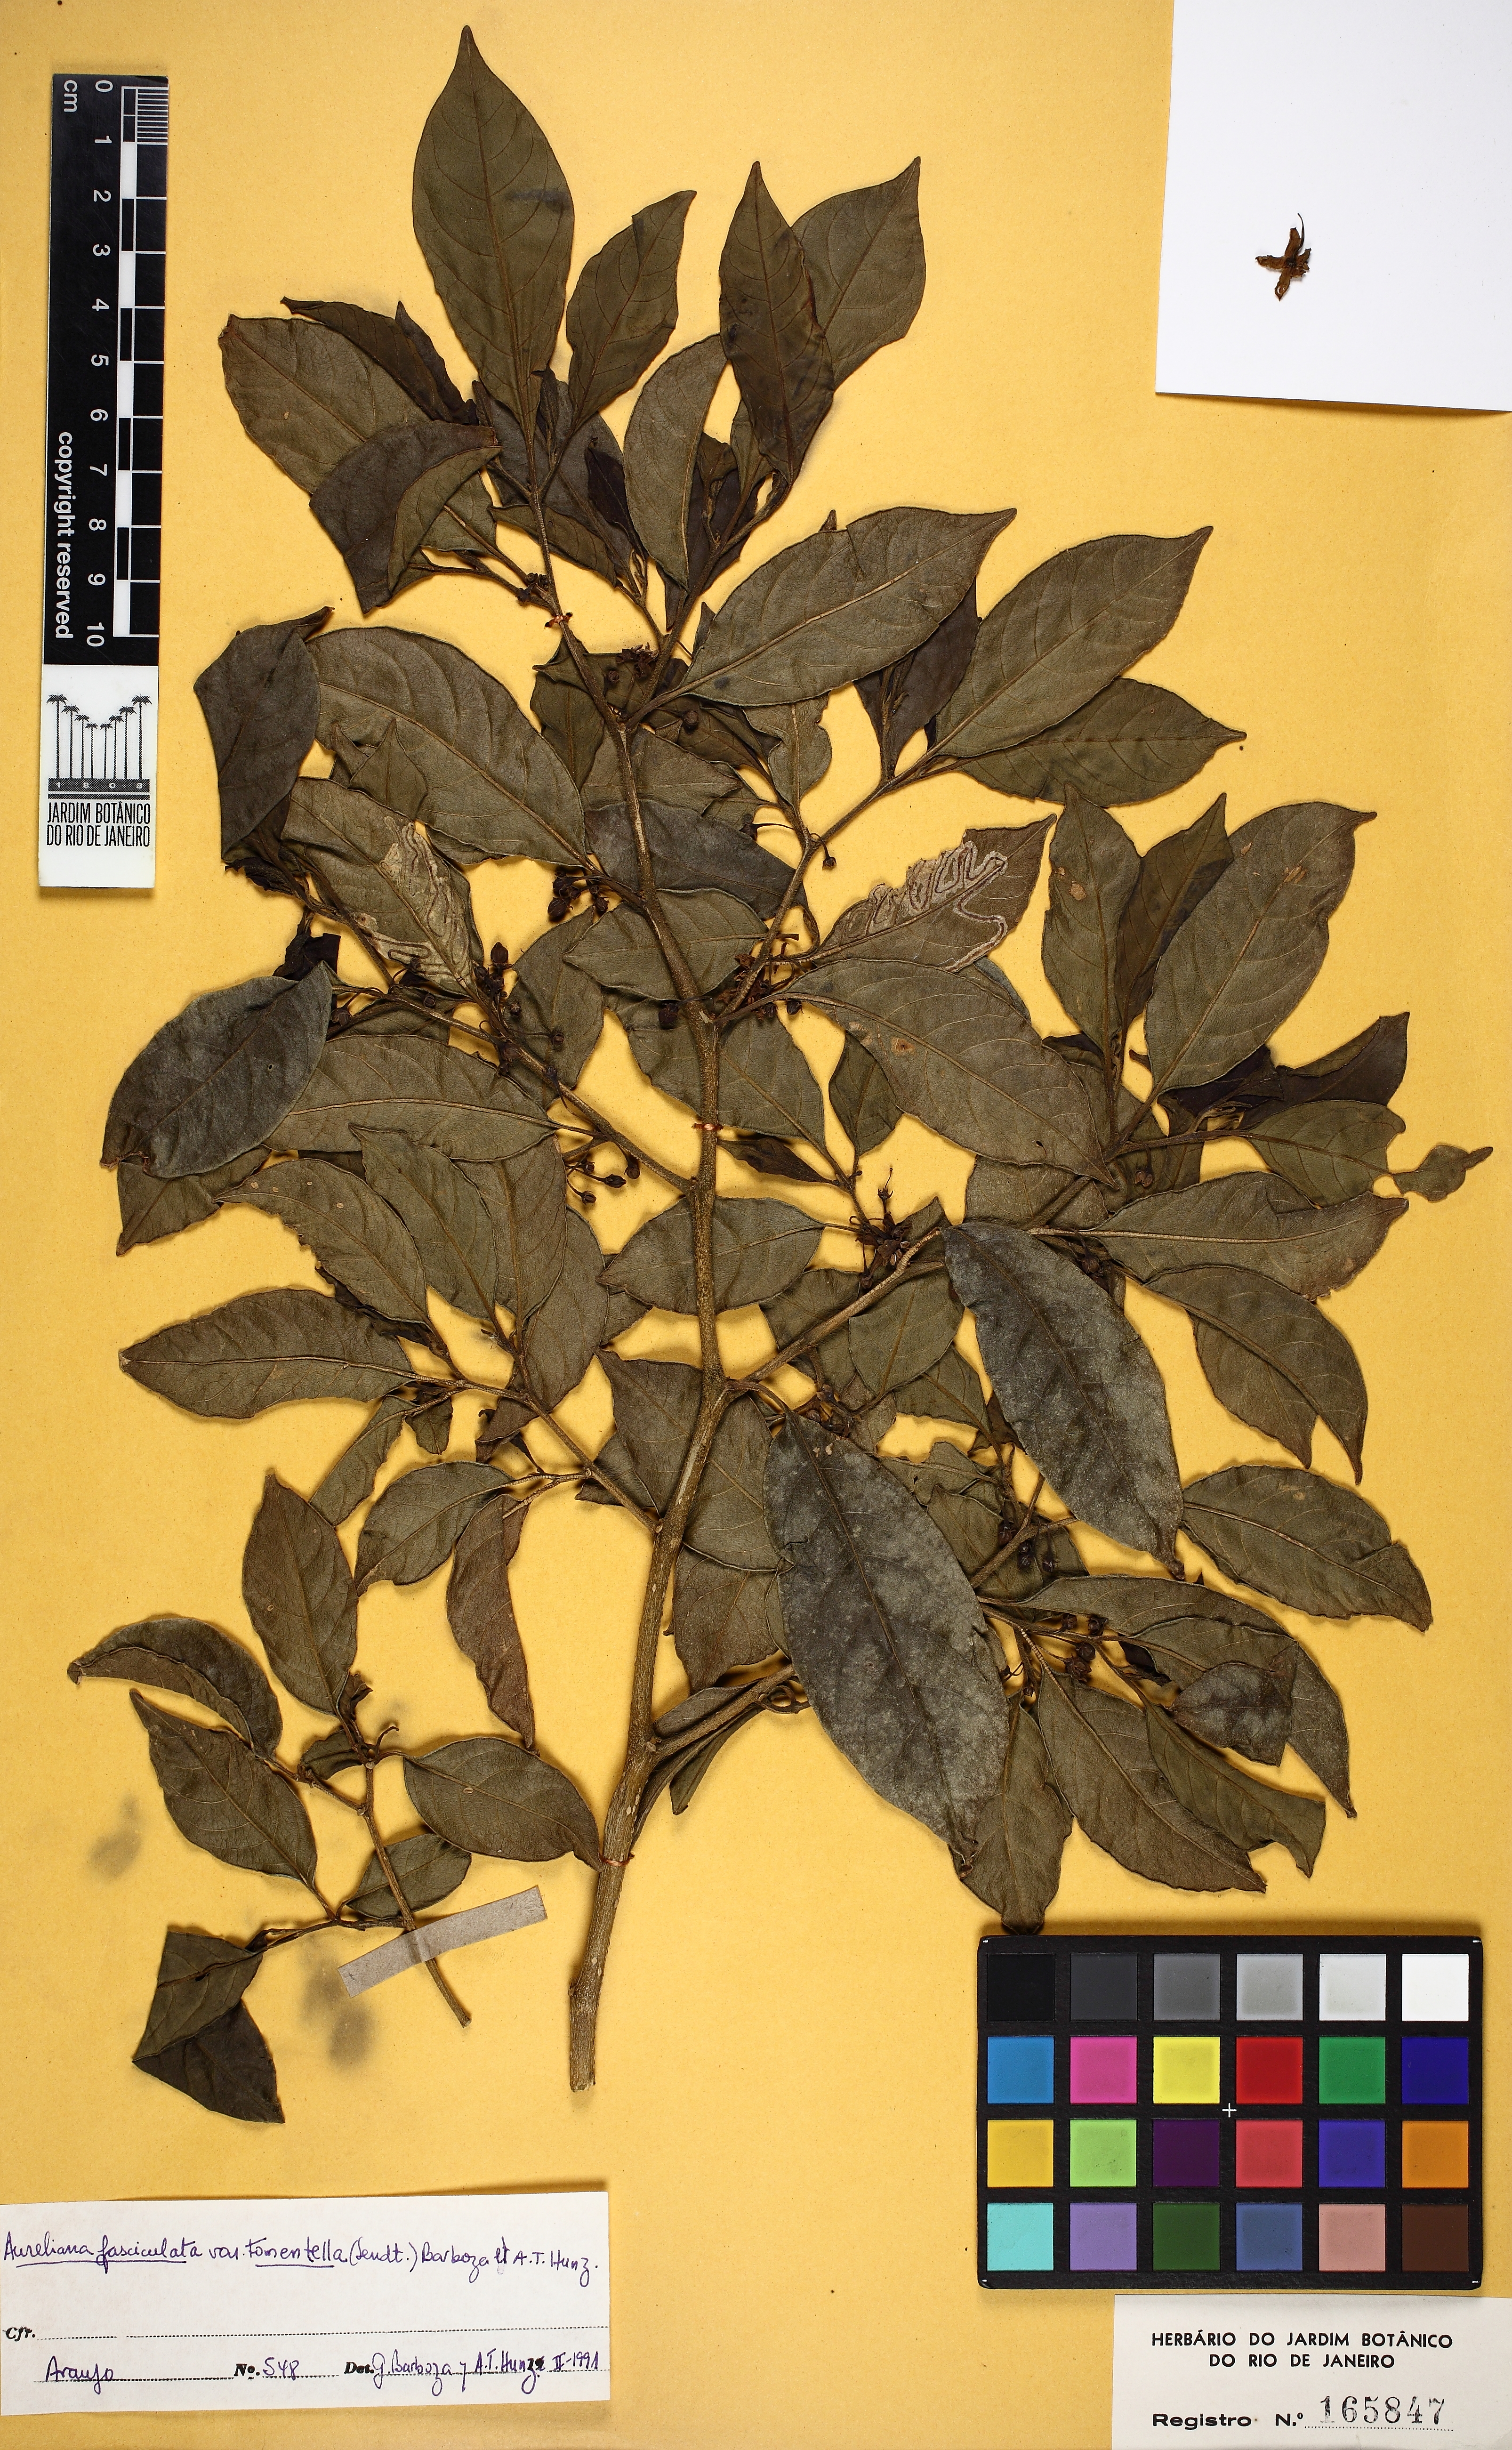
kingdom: Plantae
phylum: Tracheophyta
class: Magnoliopsida
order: Solanales
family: Solanaceae
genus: Athenaea
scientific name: Athenaea fasciculata
